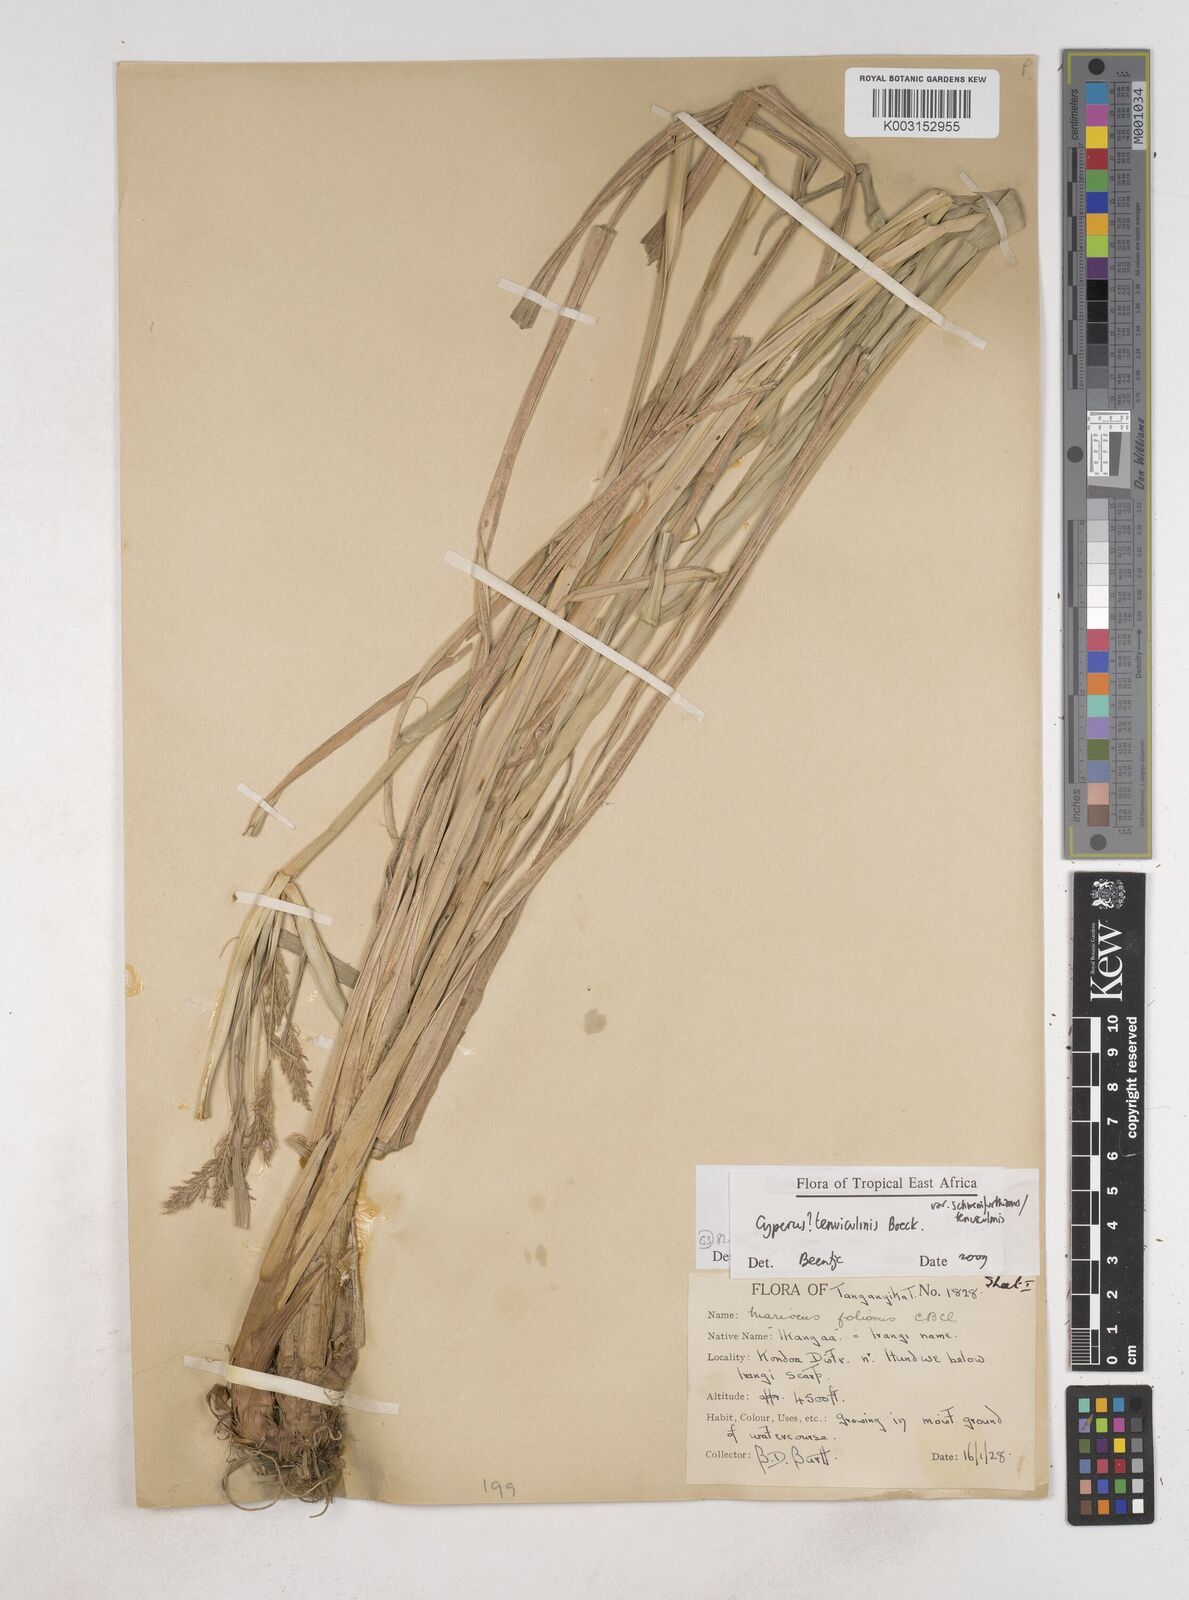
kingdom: Plantae
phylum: Tracheophyta
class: Liliopsida
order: Poales
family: Cyperaceae
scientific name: Cyperaceae
